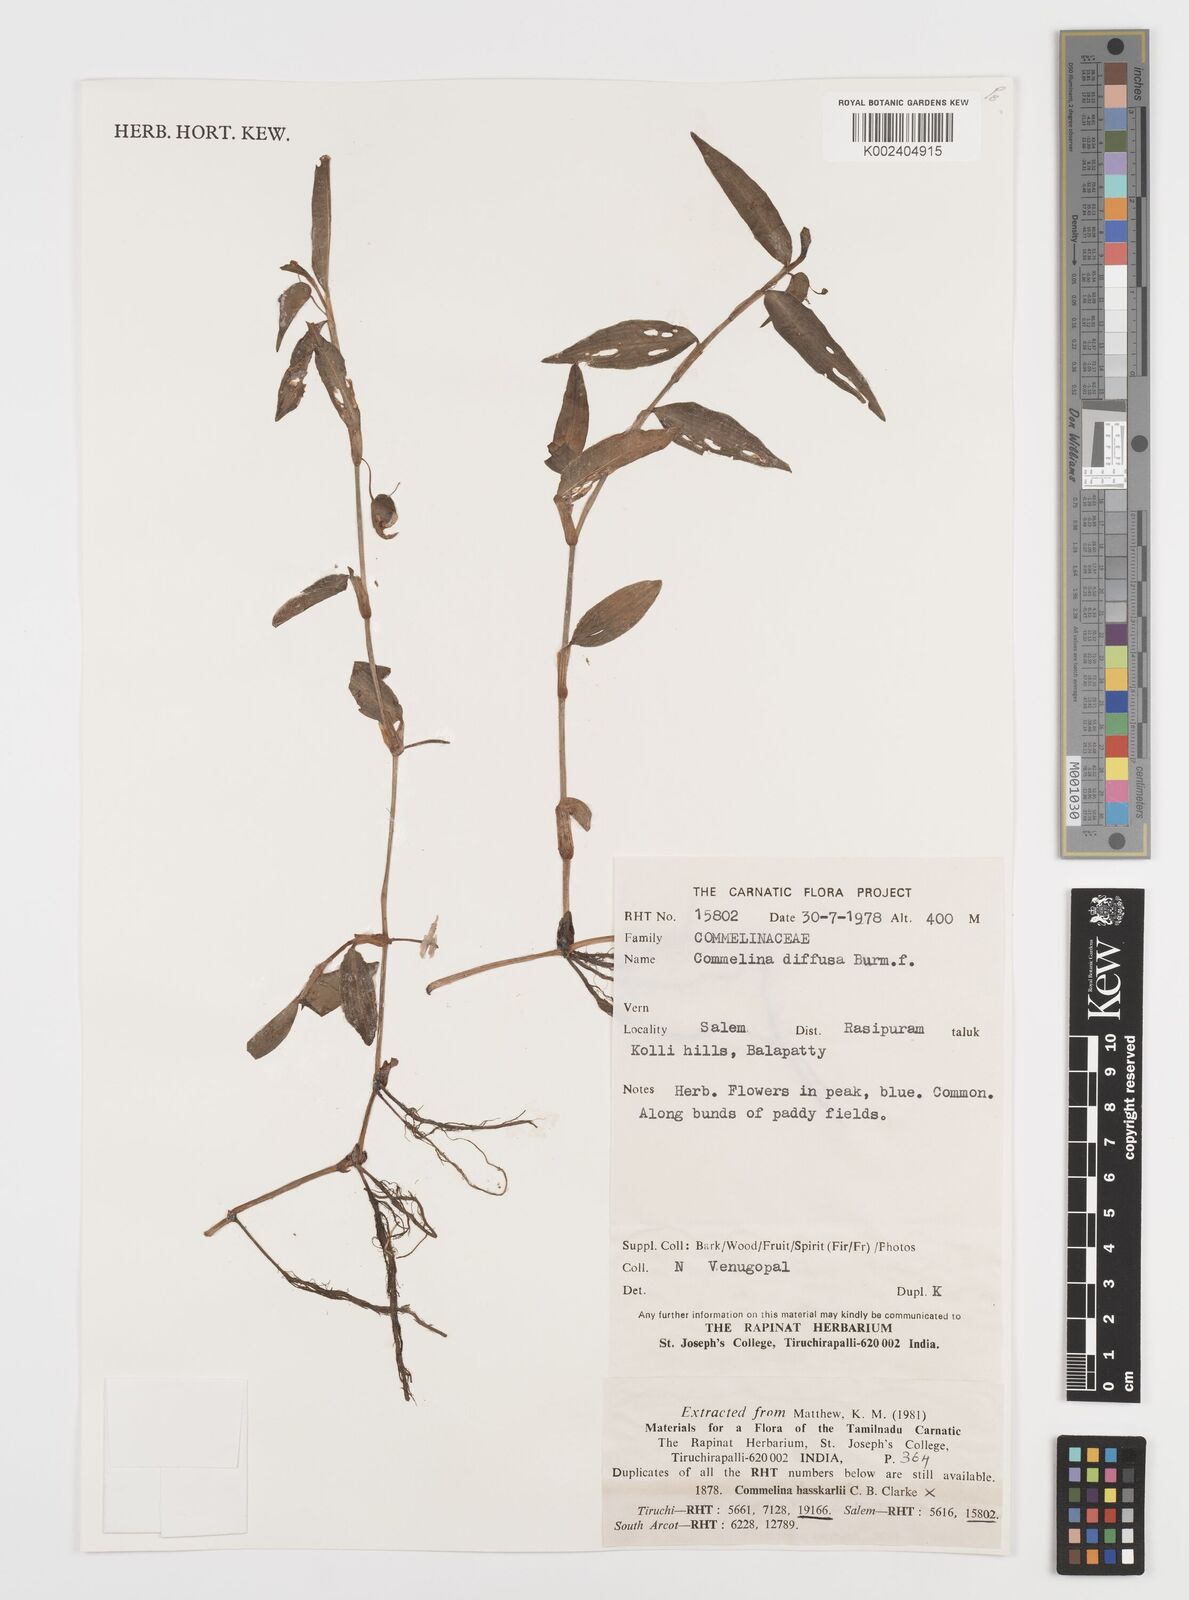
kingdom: Plantae
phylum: Tracheophyta
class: Liliopsida
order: Commelinales
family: Commelinaceae
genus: Commelina
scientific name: Commelina diffusa
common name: Climbing dayflower
